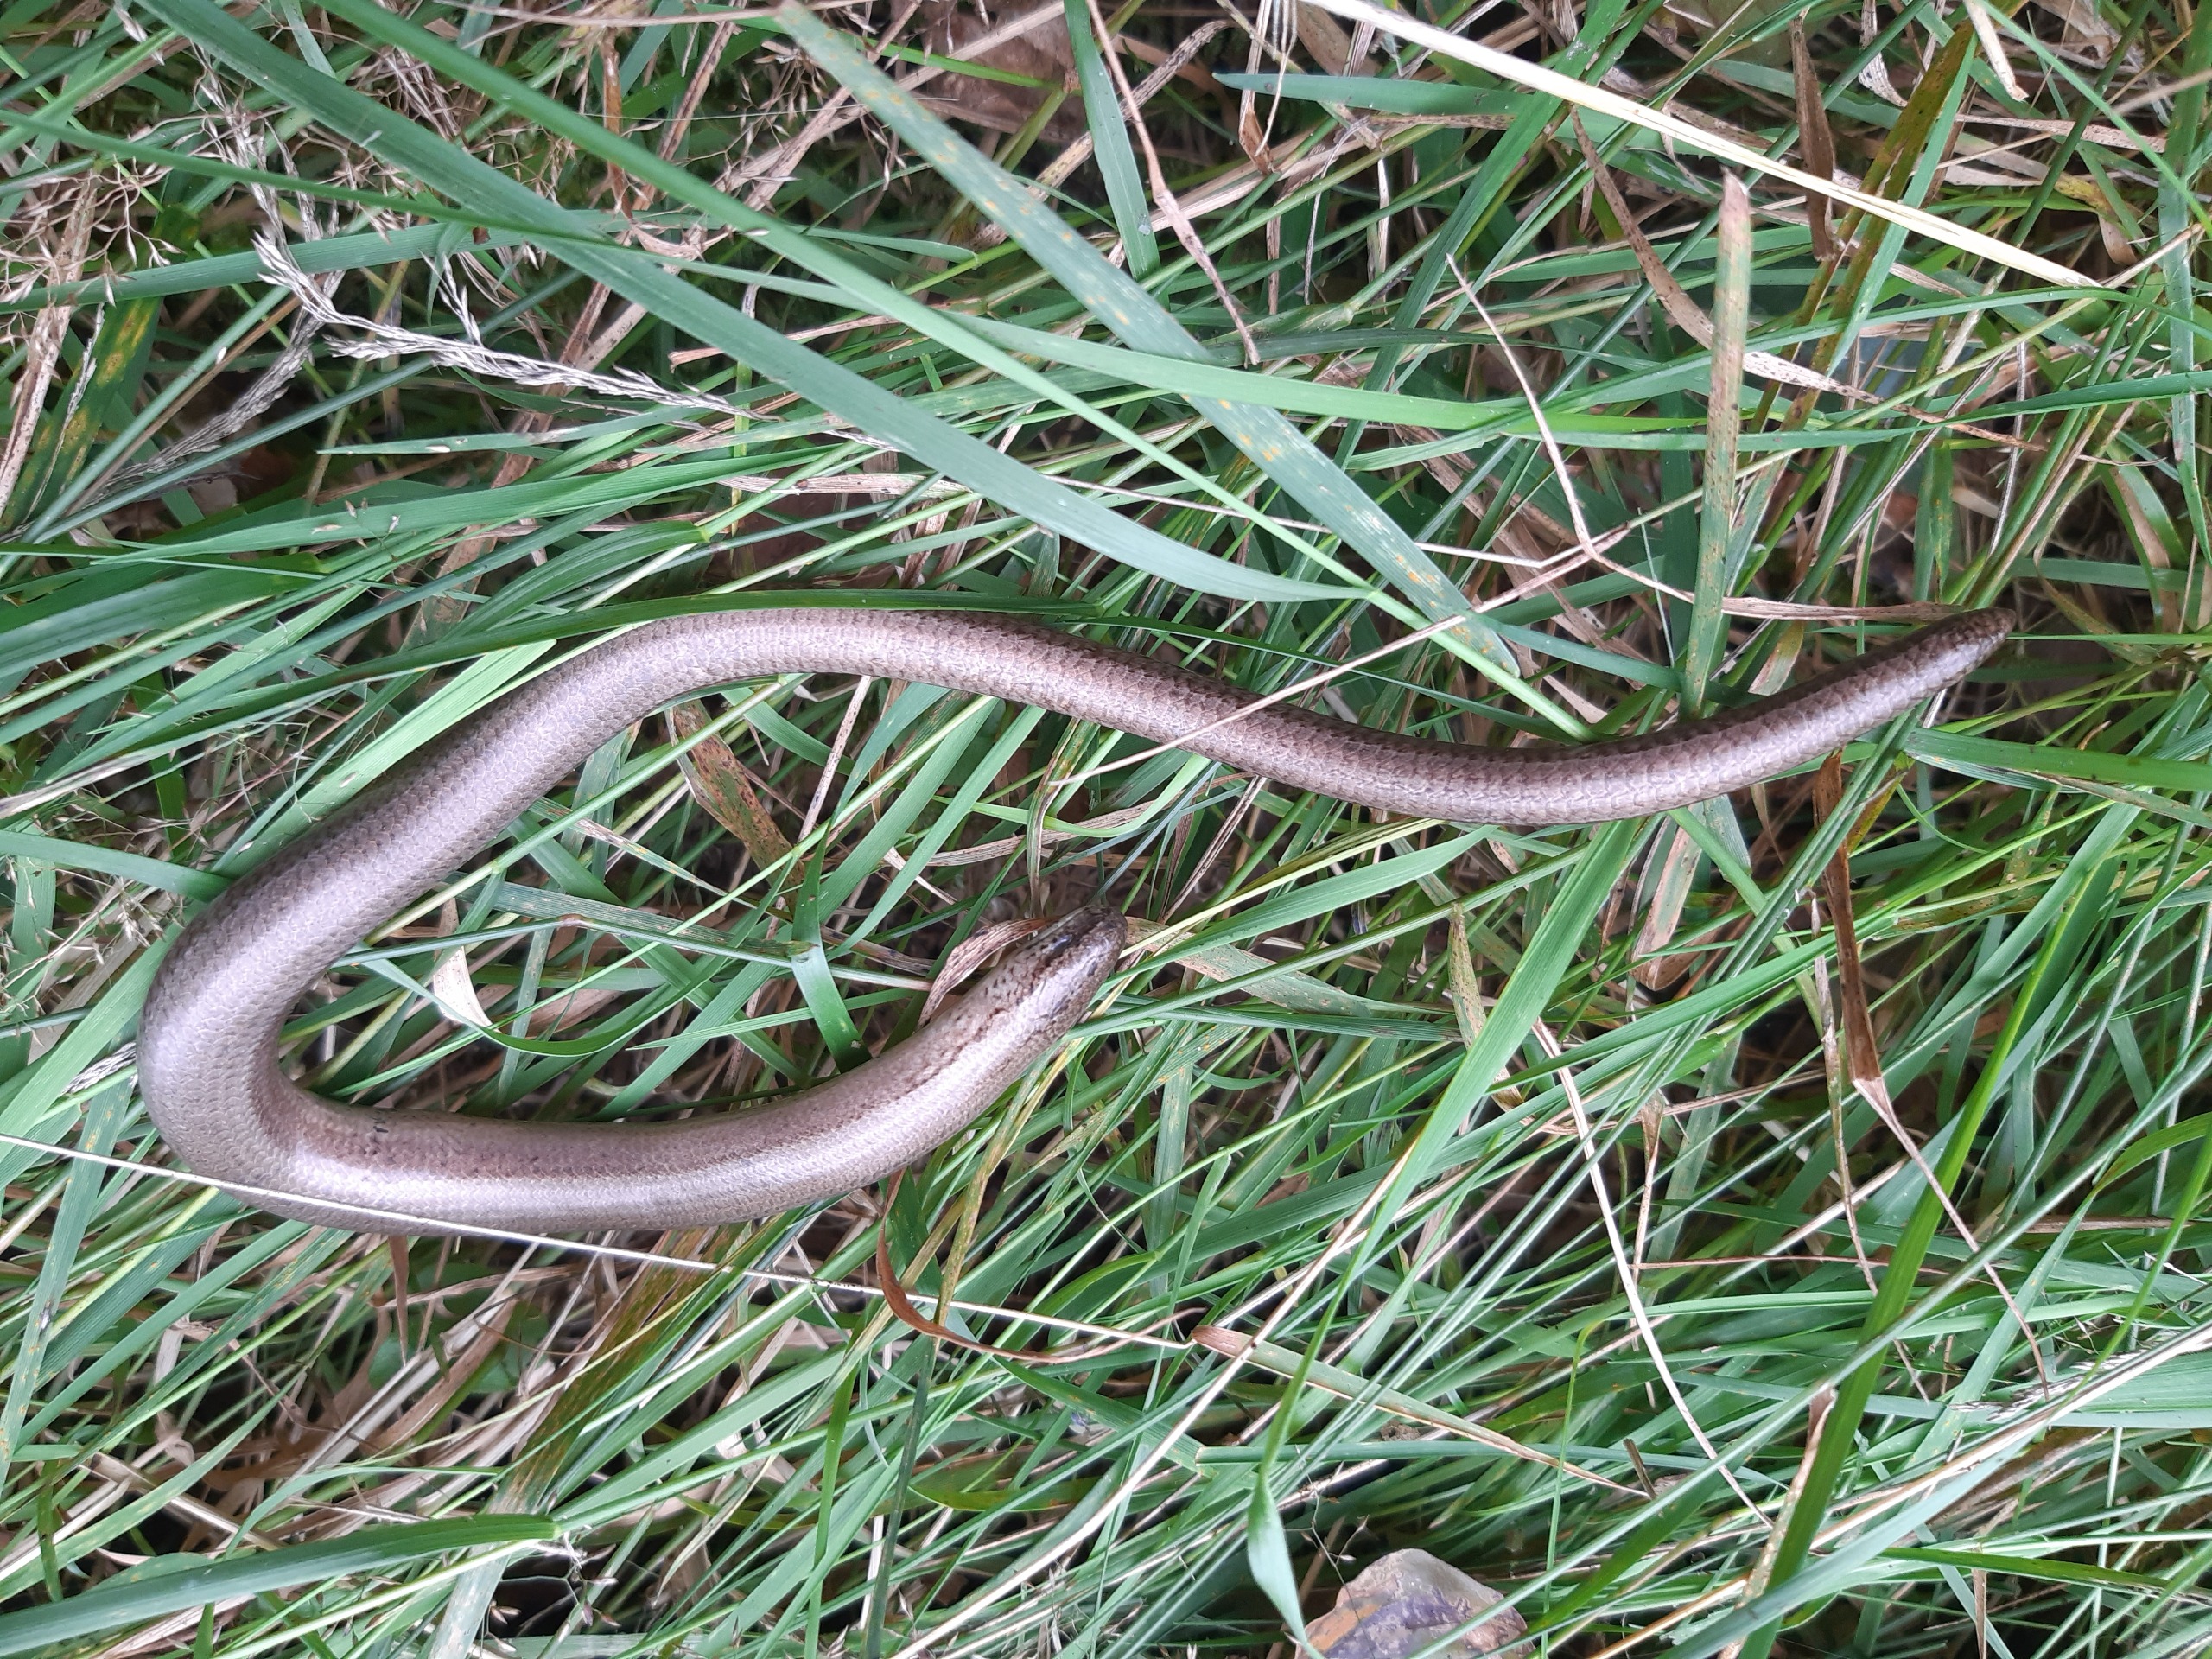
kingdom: Animalia
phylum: Chordata
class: Squamata
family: Anguidae
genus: Anguis
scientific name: Anguis fragilis
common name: Stålorm
